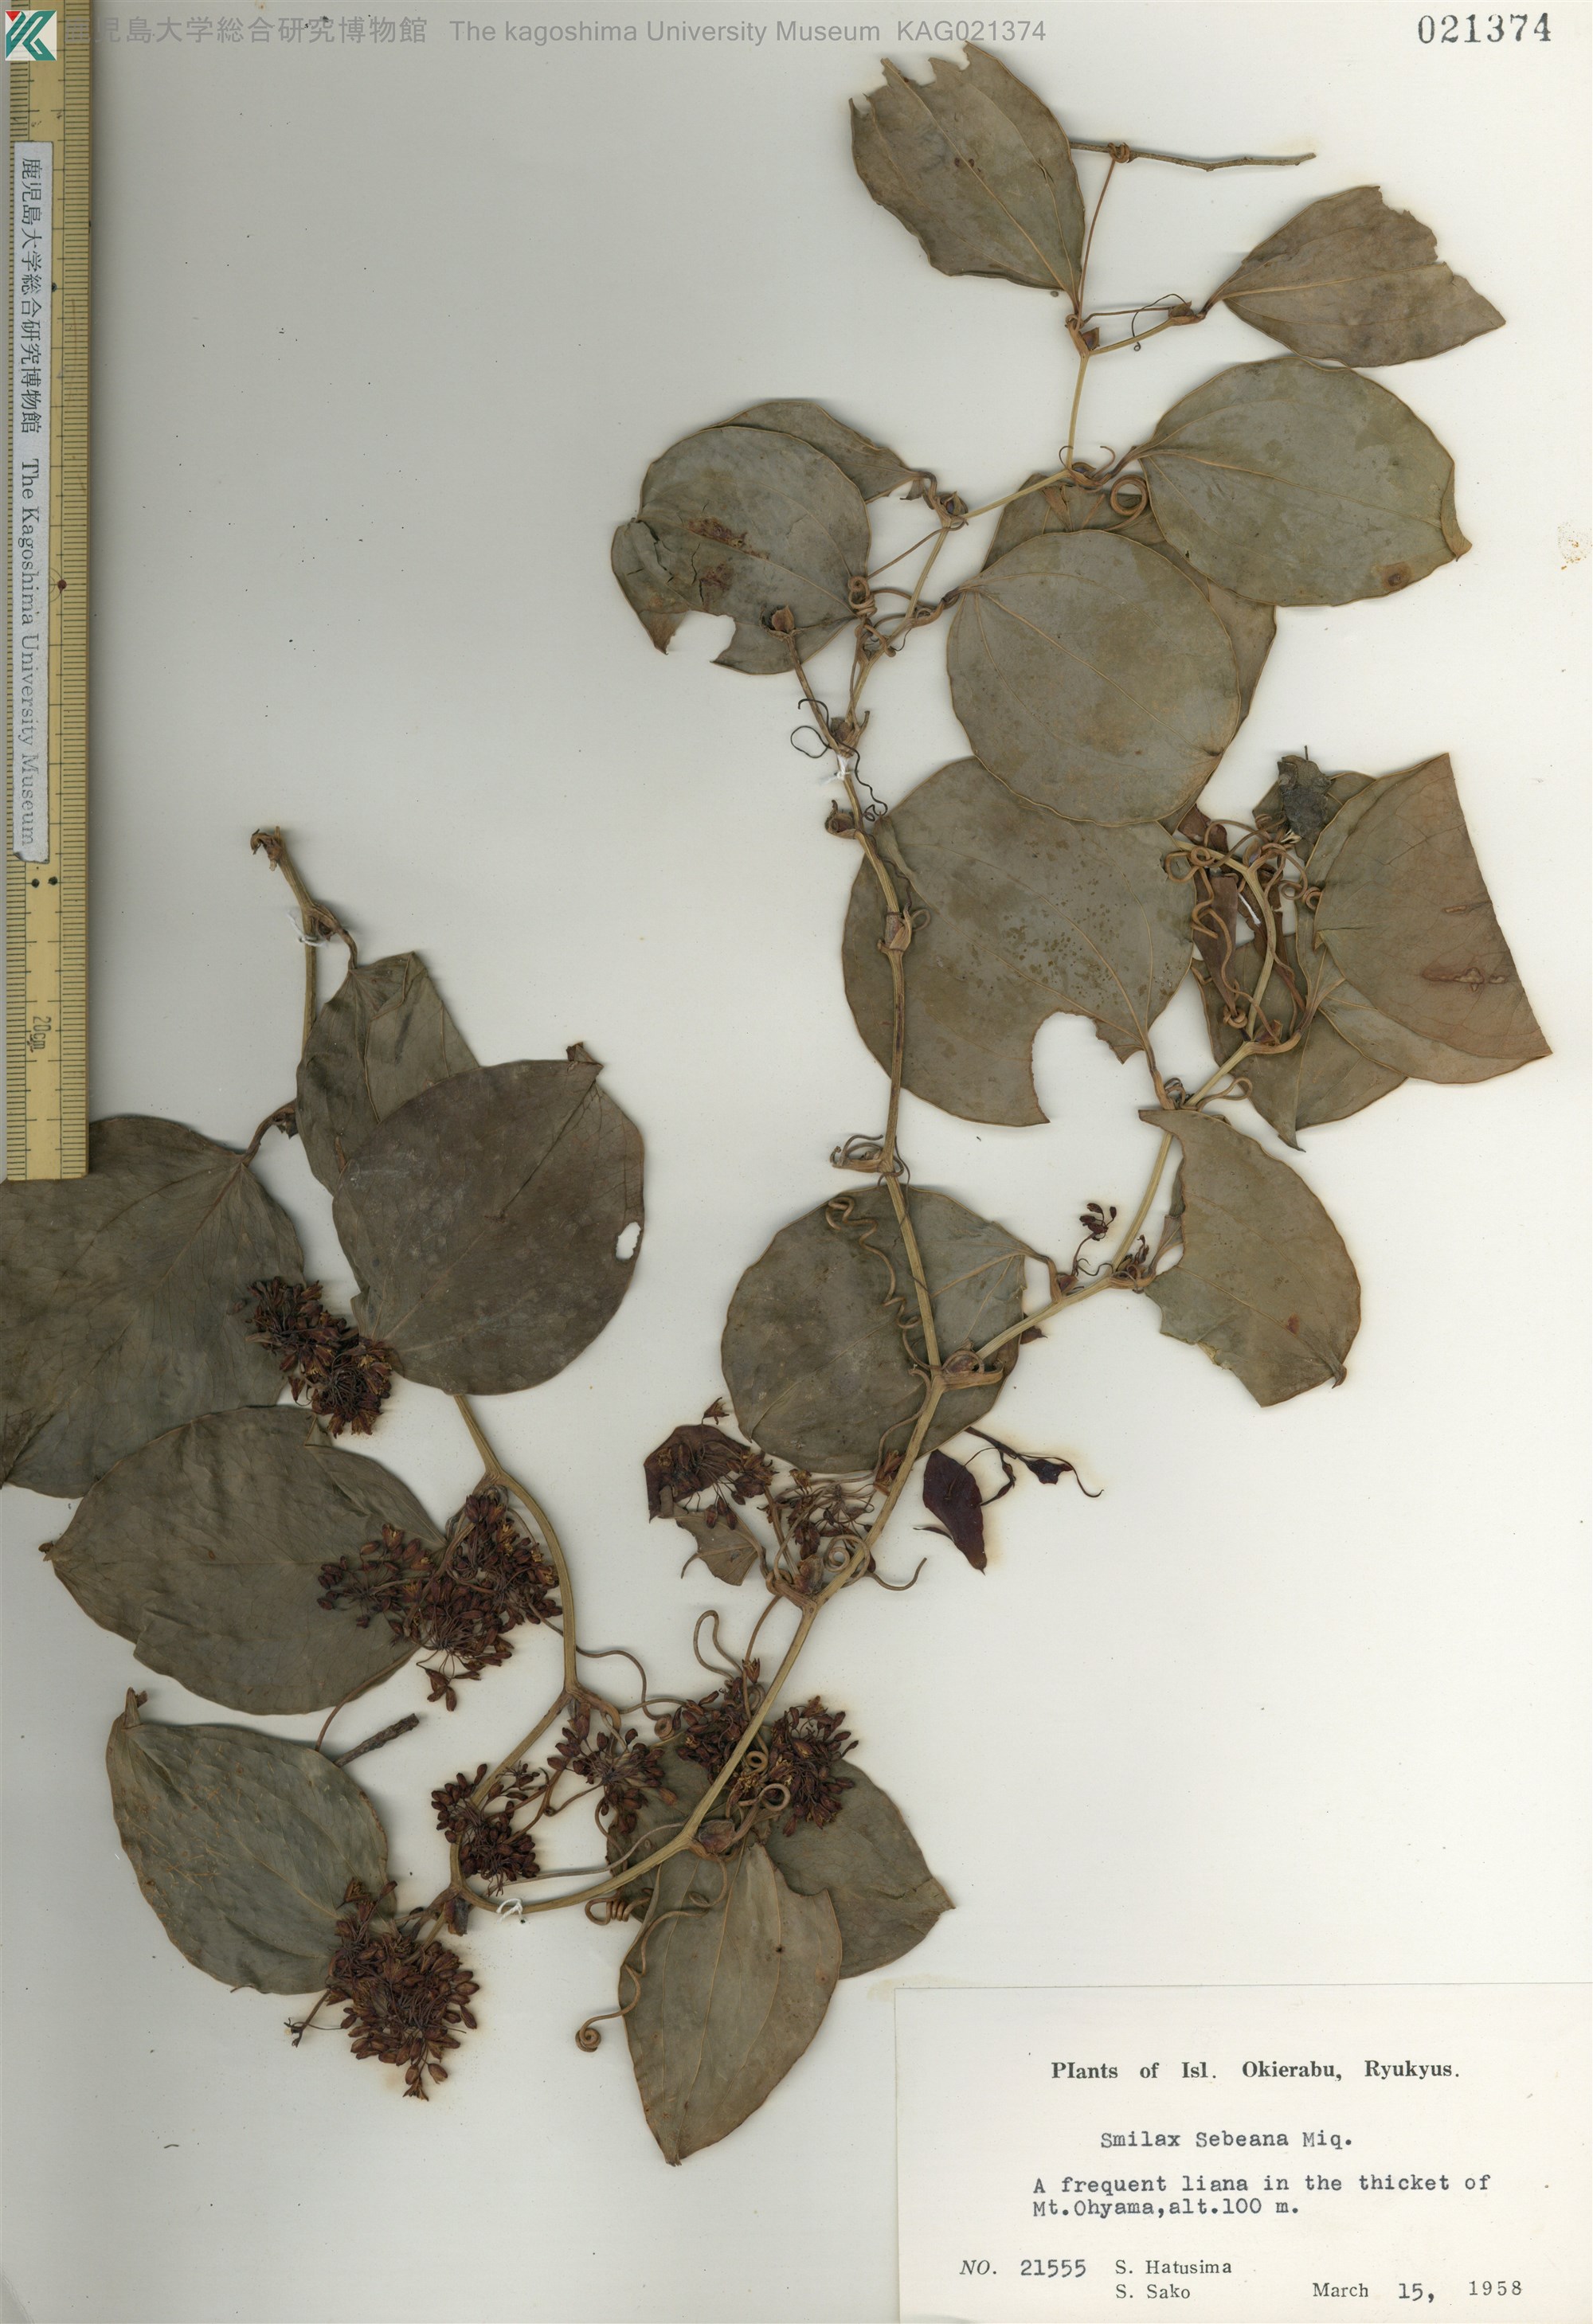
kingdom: Plantae
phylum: Tracheophyta
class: Liliopsida
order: Liliales
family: Smilacaceae
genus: Smilax
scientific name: Smilax sebeana
